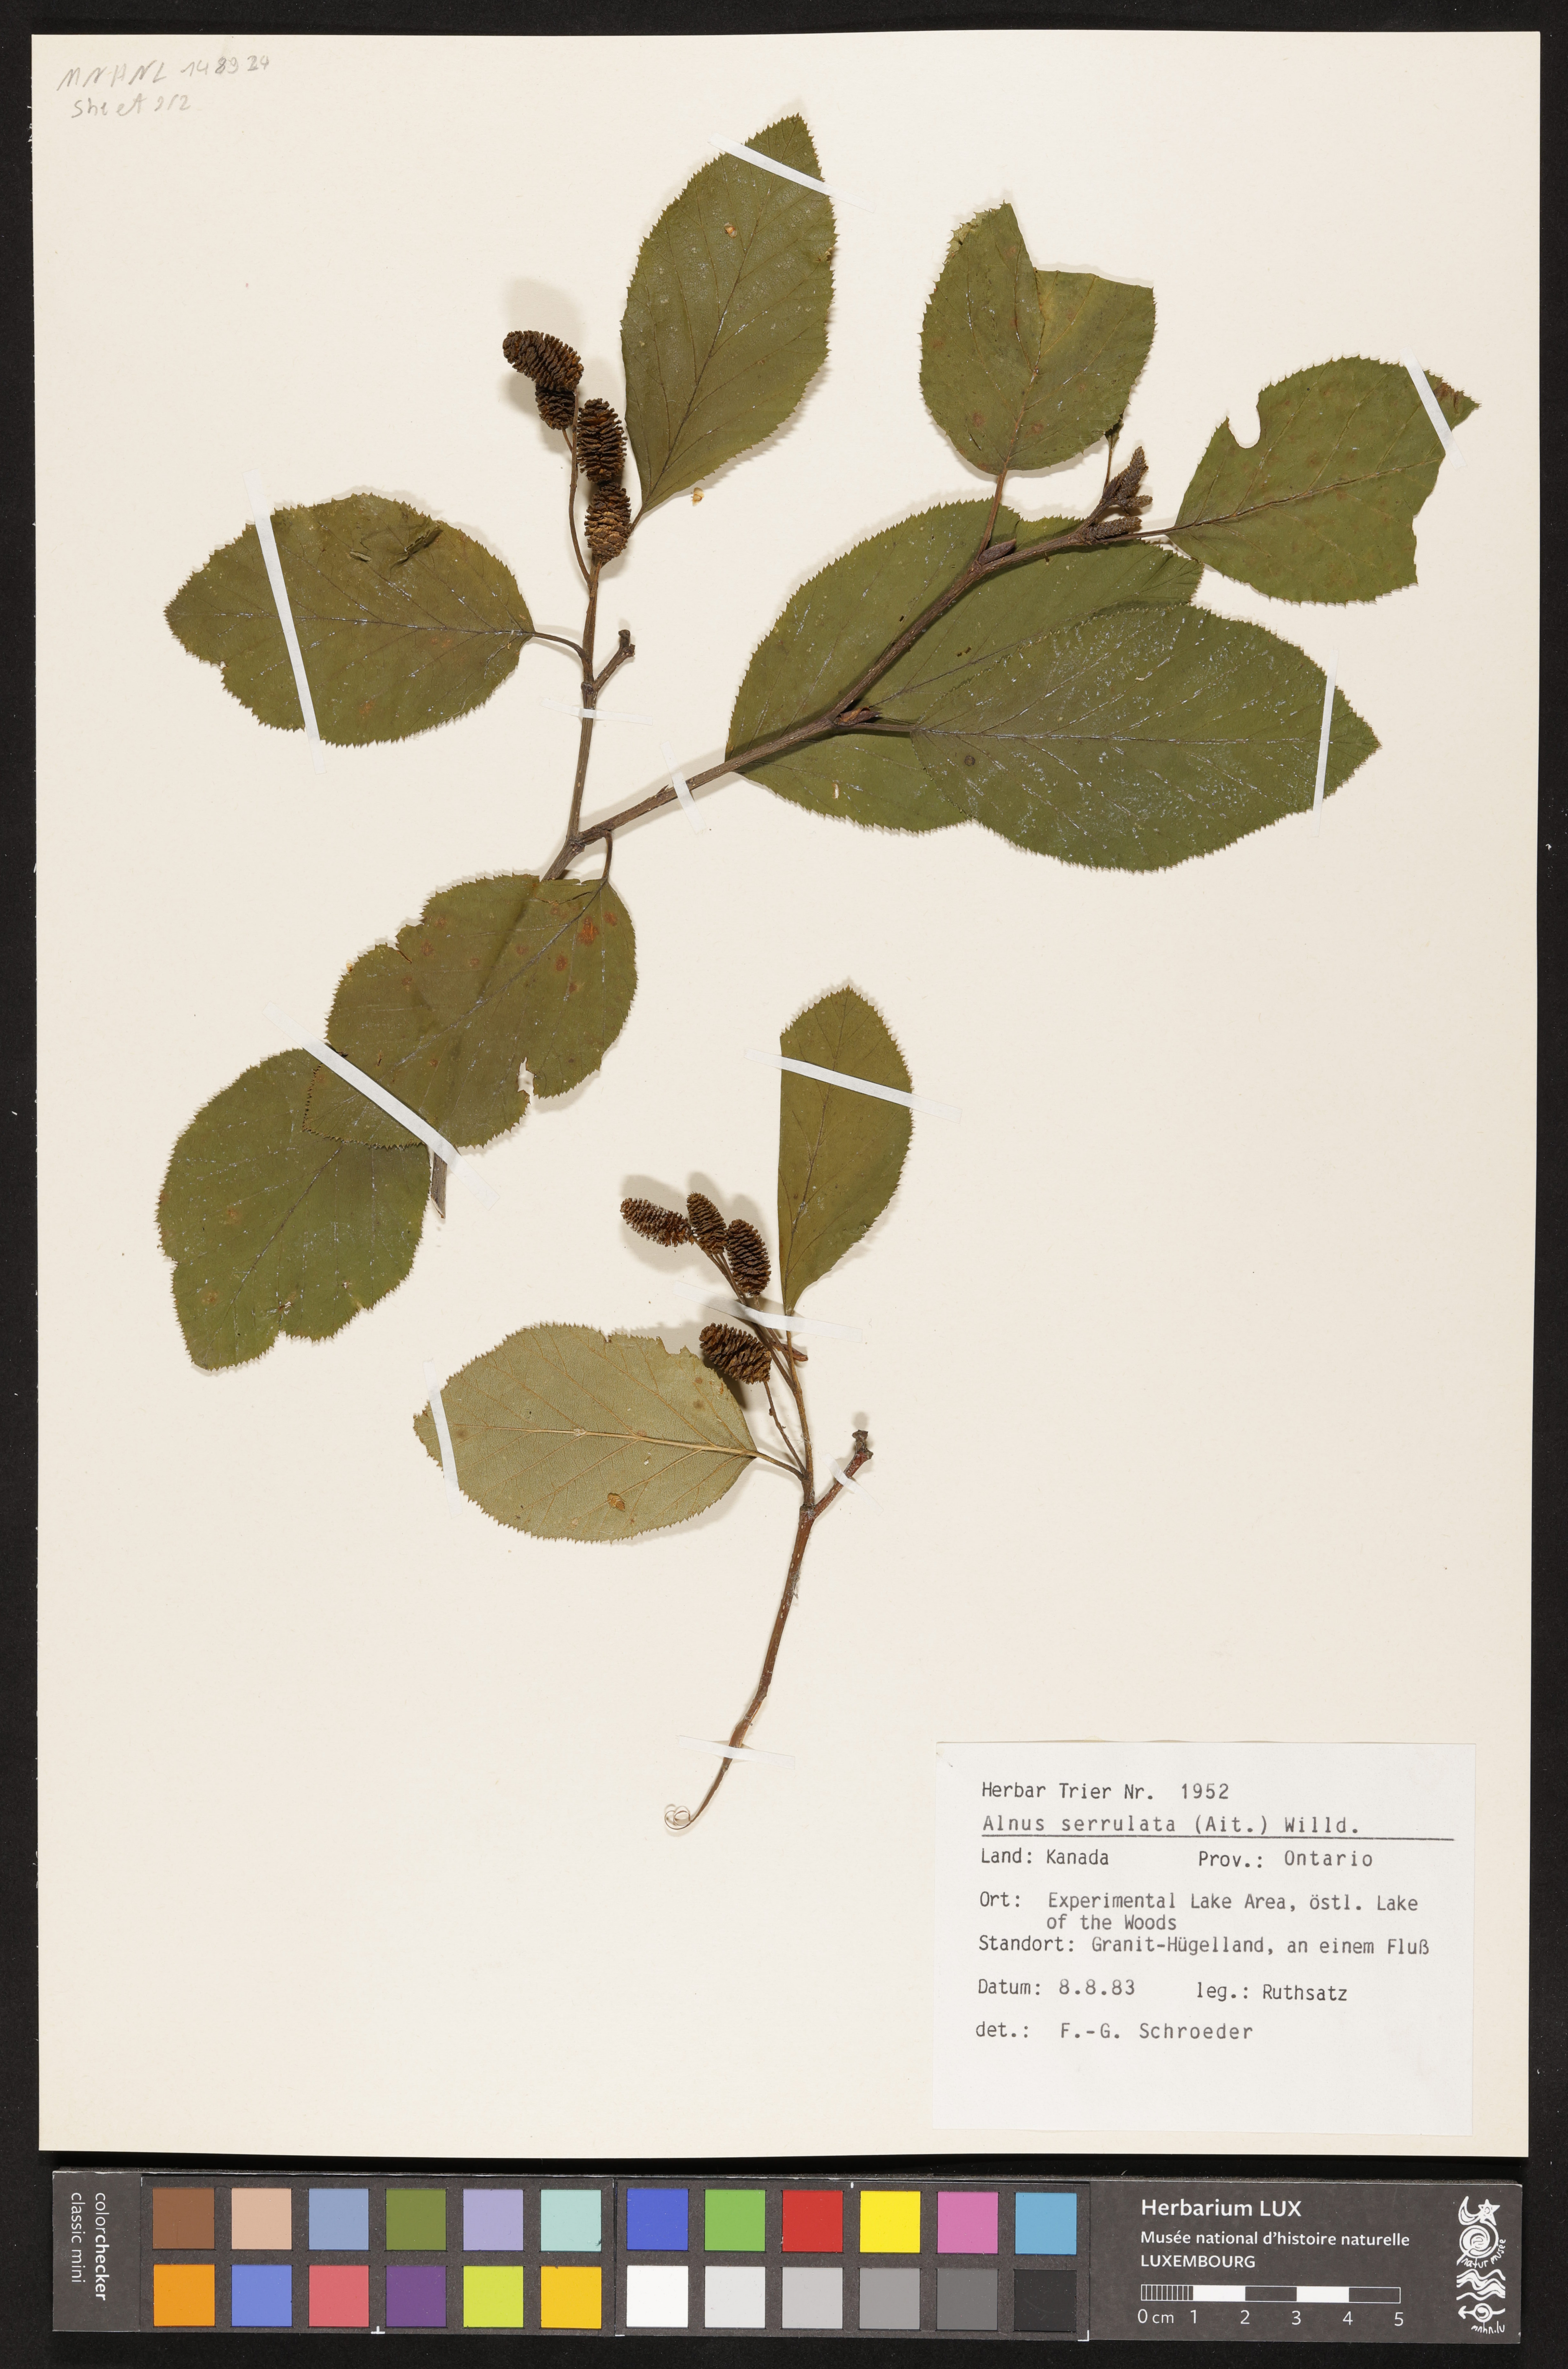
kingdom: Plantae
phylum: Tracheophyta
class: Magnoliopsida
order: Fagales
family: Betulaceae
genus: Alnus
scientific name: Alnus serrulata
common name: Hazel alder
